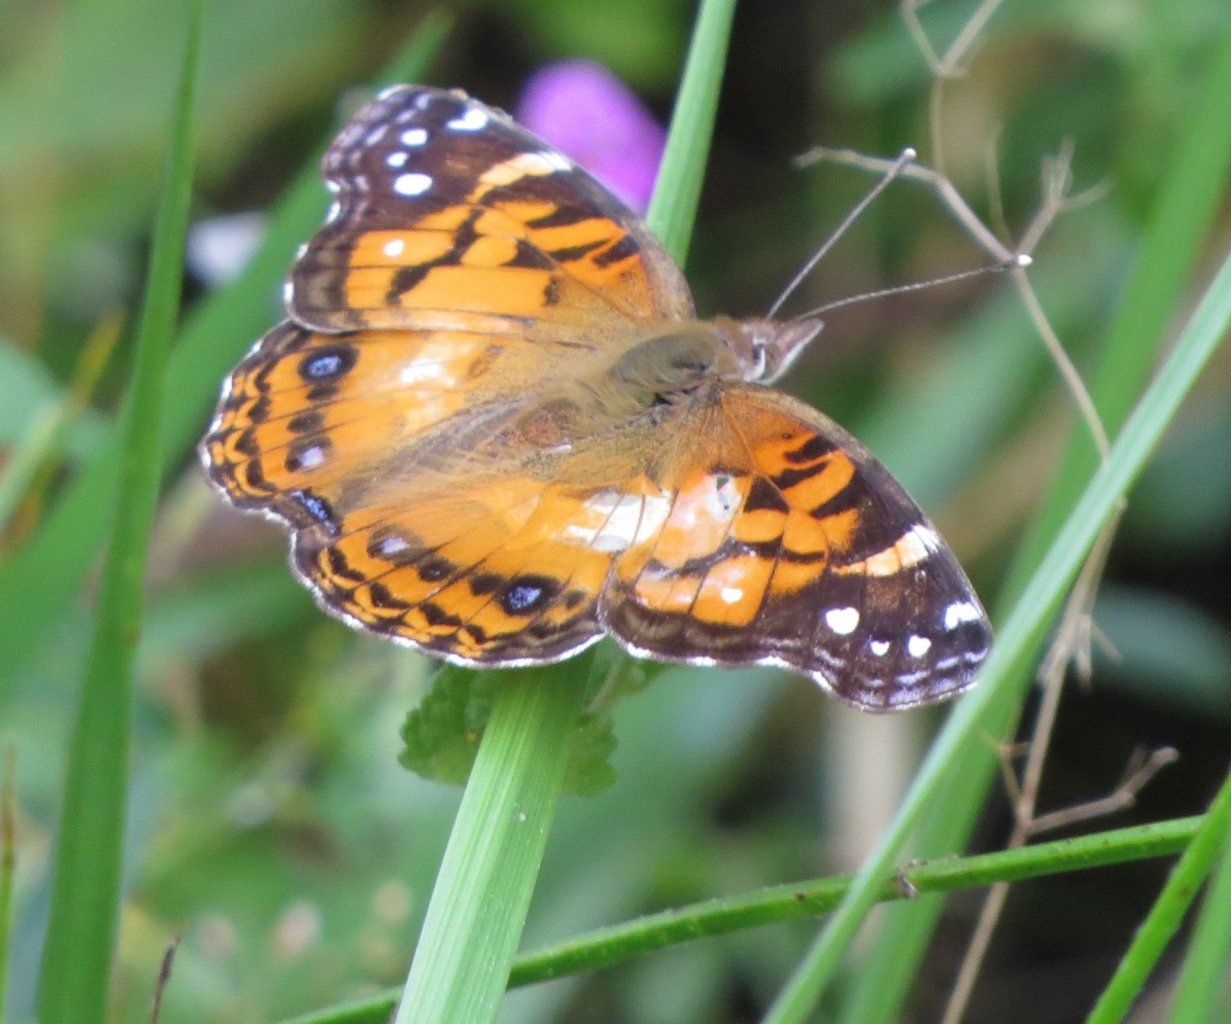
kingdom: Animalia
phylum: Arthropoda
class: Insecta
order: Lepidoptera
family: Nymphalidae
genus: Vanessa
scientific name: Vanessa virginiensis
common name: American Lady
